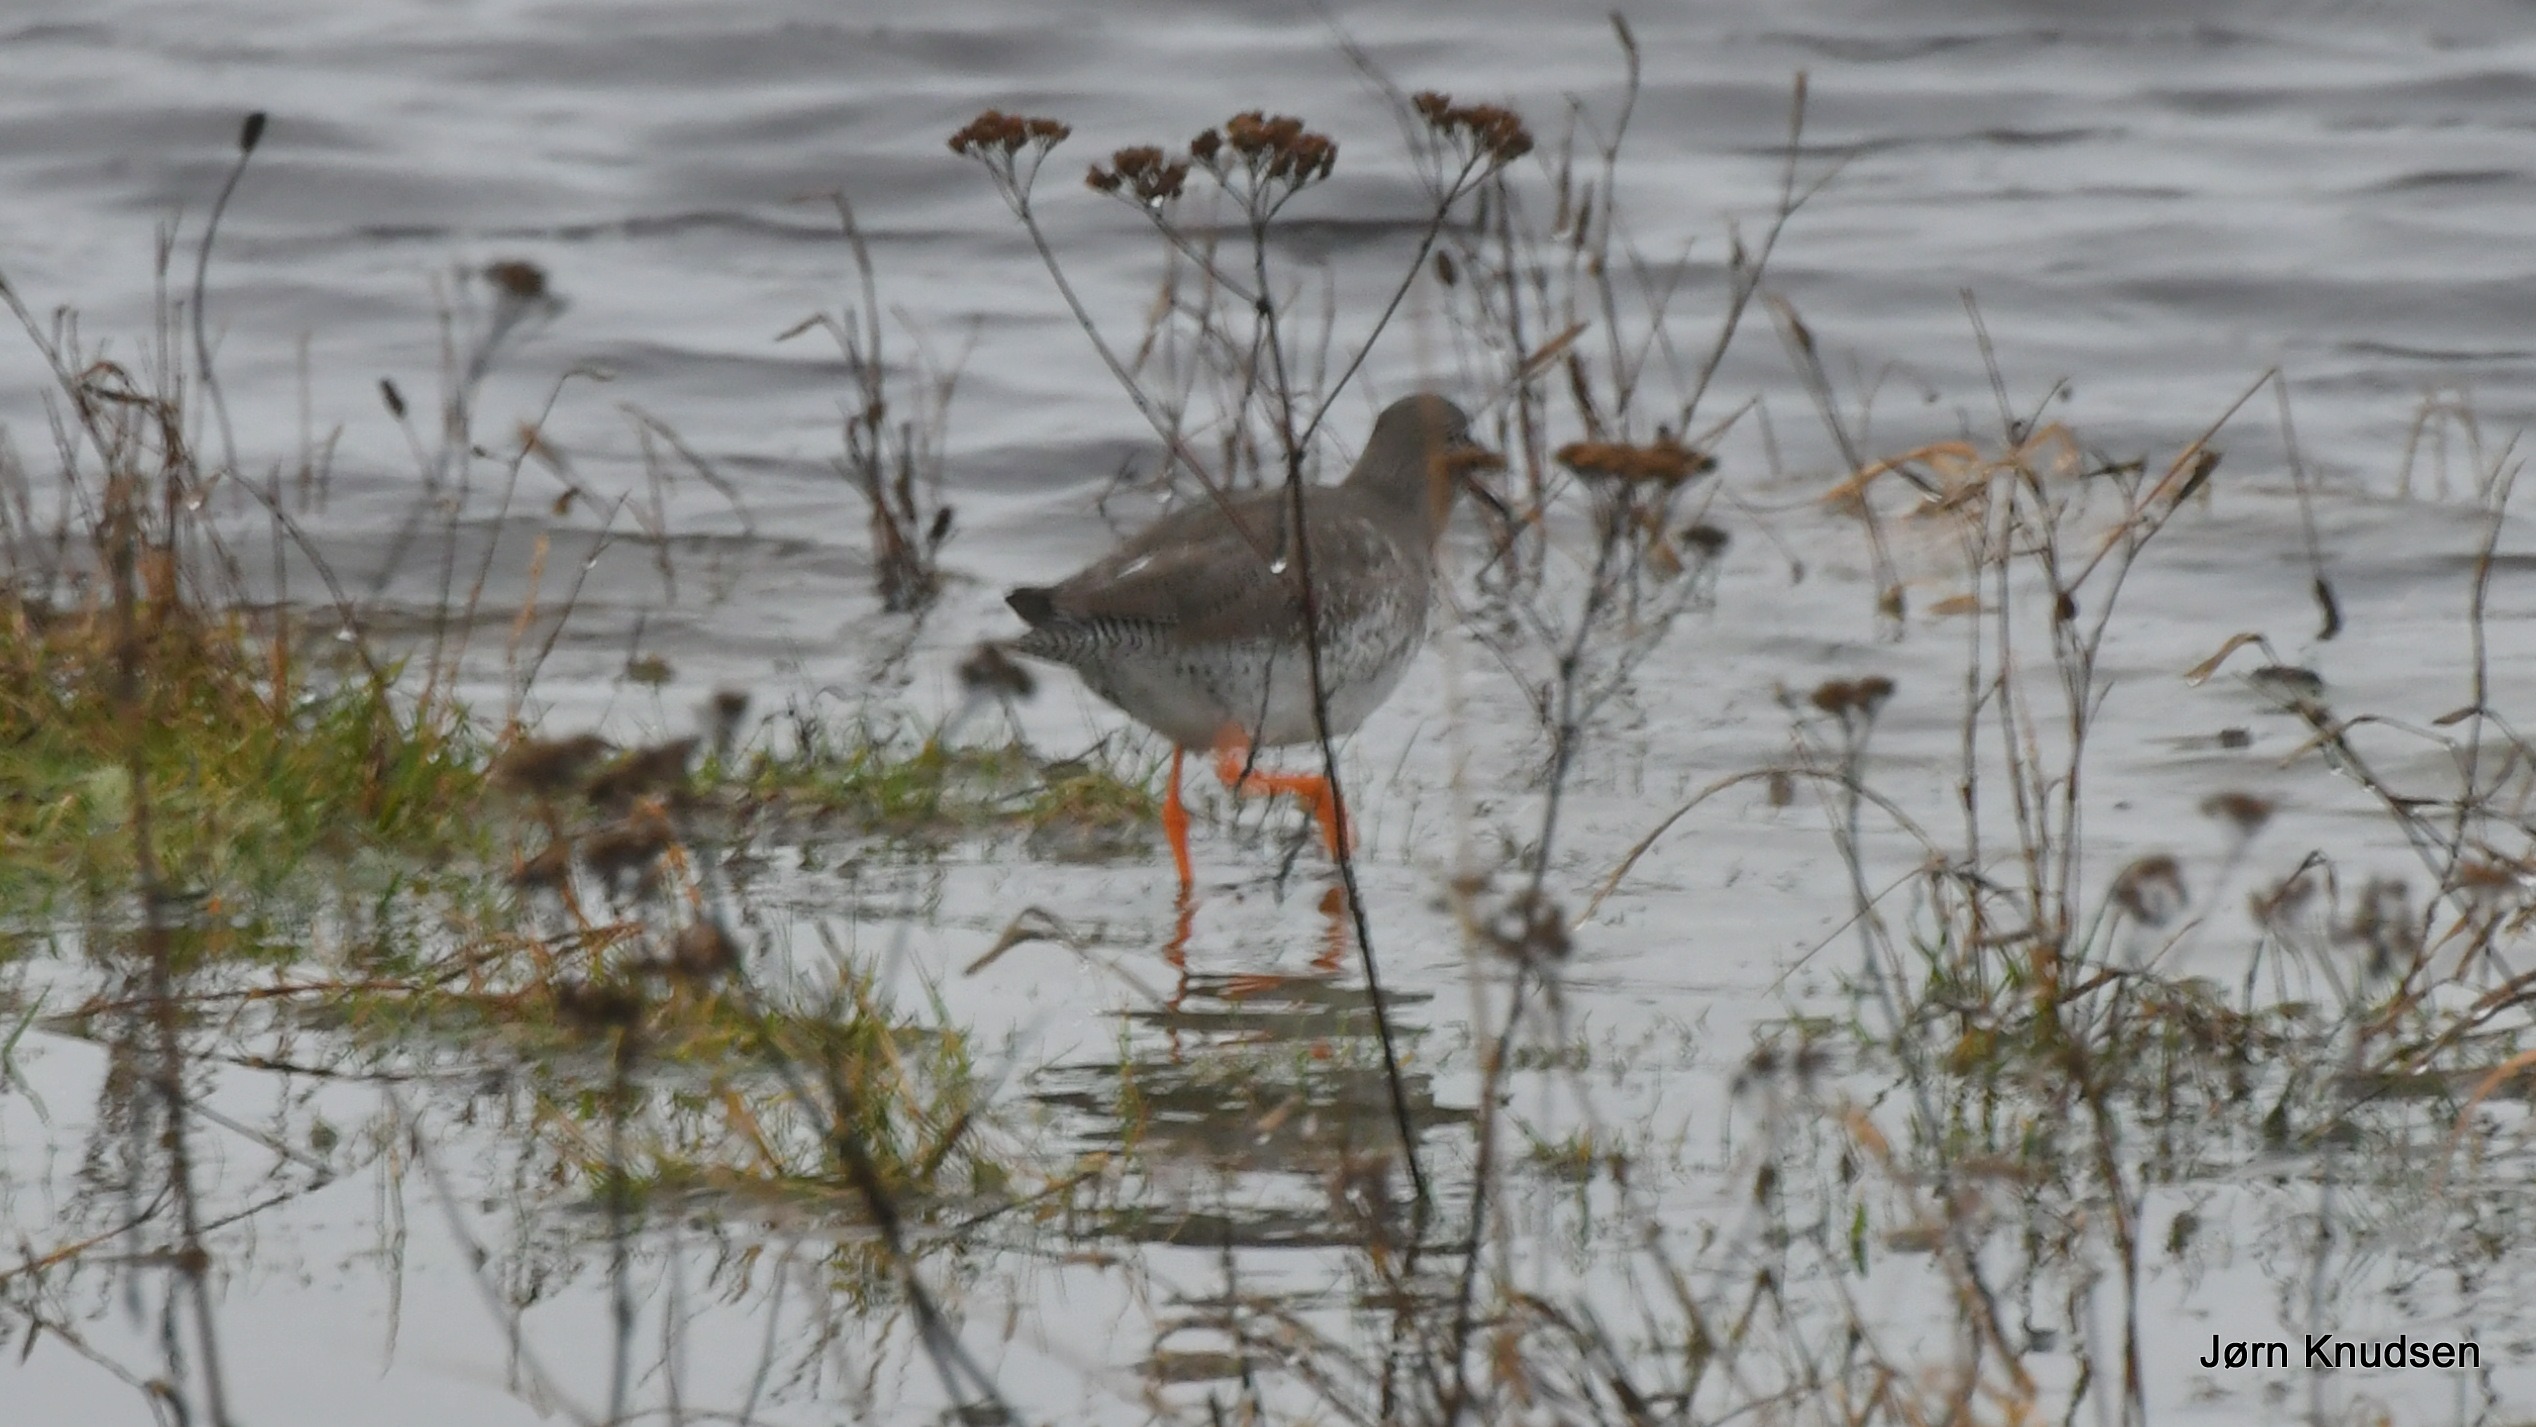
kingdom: Animalia
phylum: Chordata
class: Aves
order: Charadriiformes
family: Scolopacidae
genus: Tringa
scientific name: Tringa totanus
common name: Rødben
